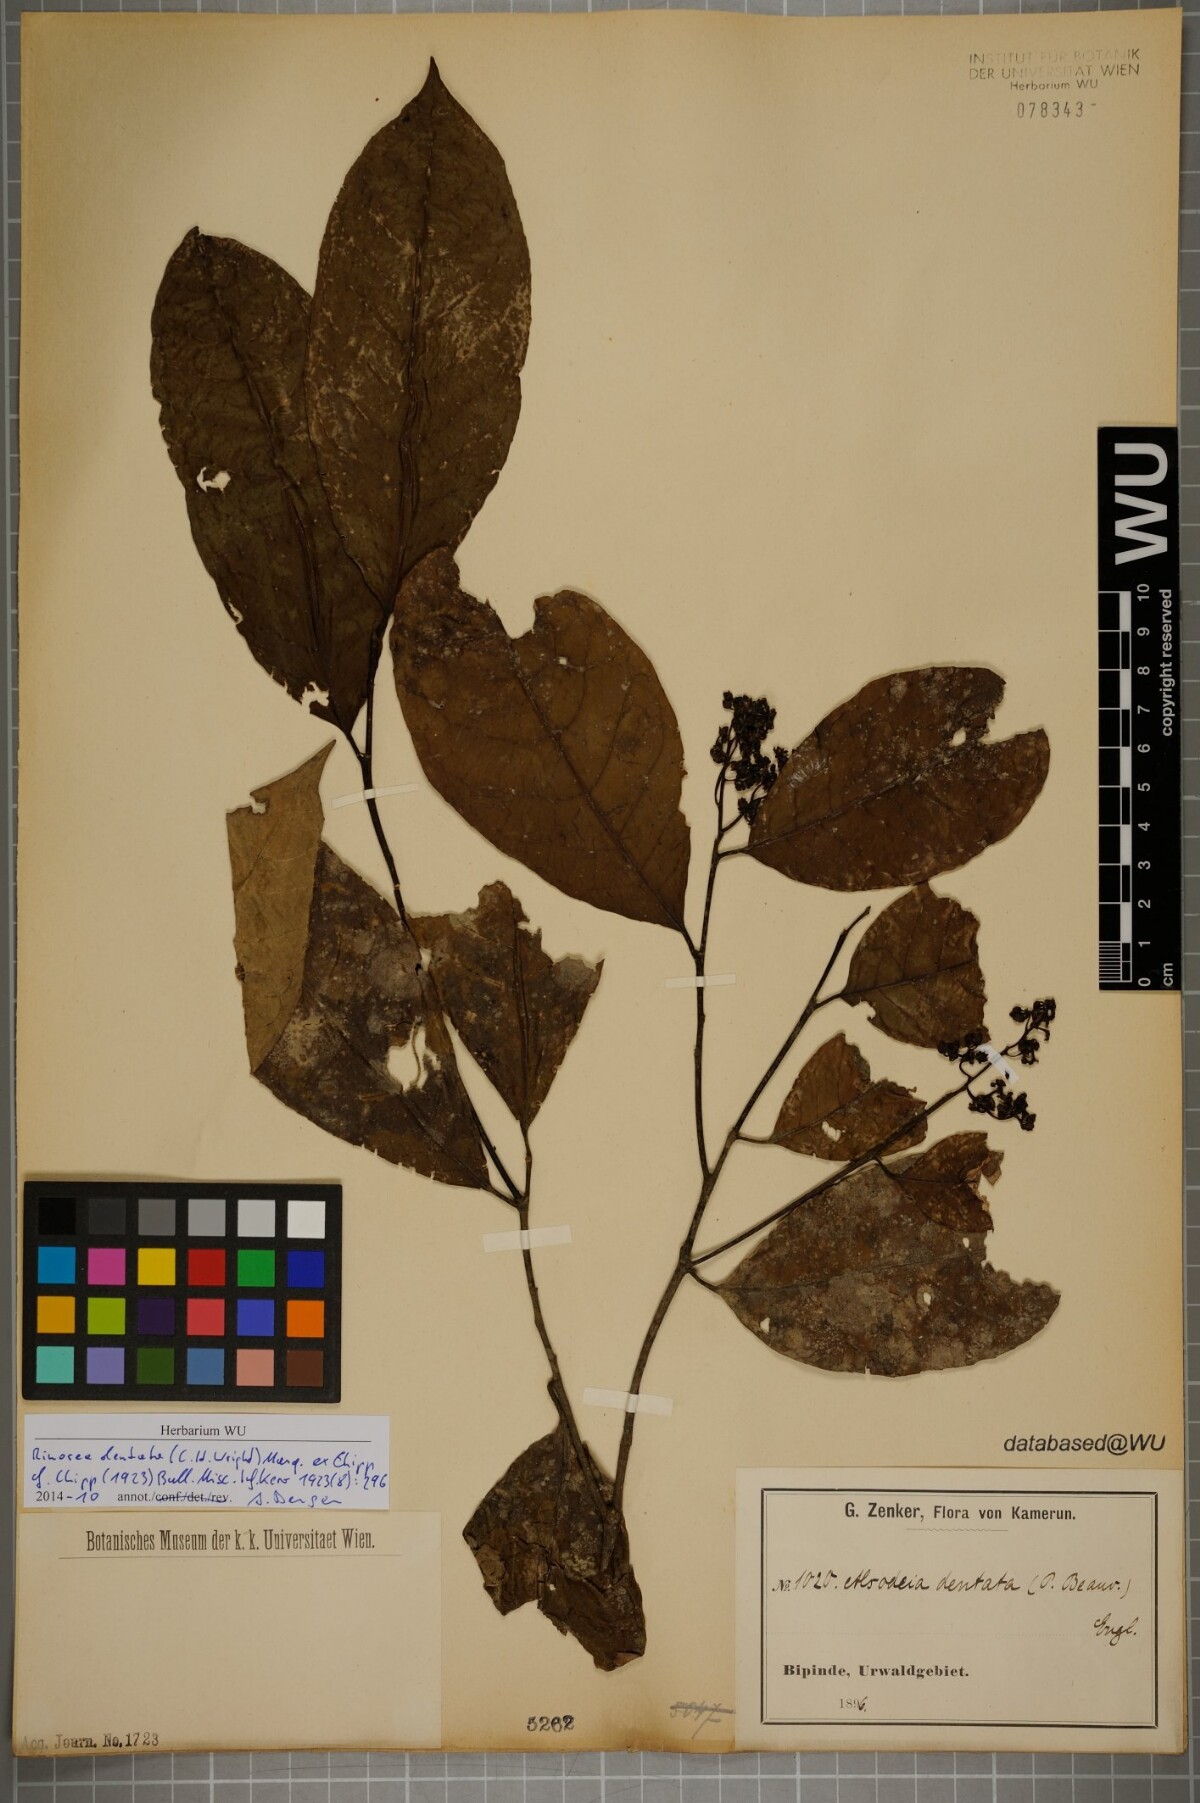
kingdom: Plantae
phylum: Tracheophyta
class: Magnoliopsida
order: Apiales
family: Pittosporaceae
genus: Marianthus
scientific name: Marianthus coeruleopunctatus
